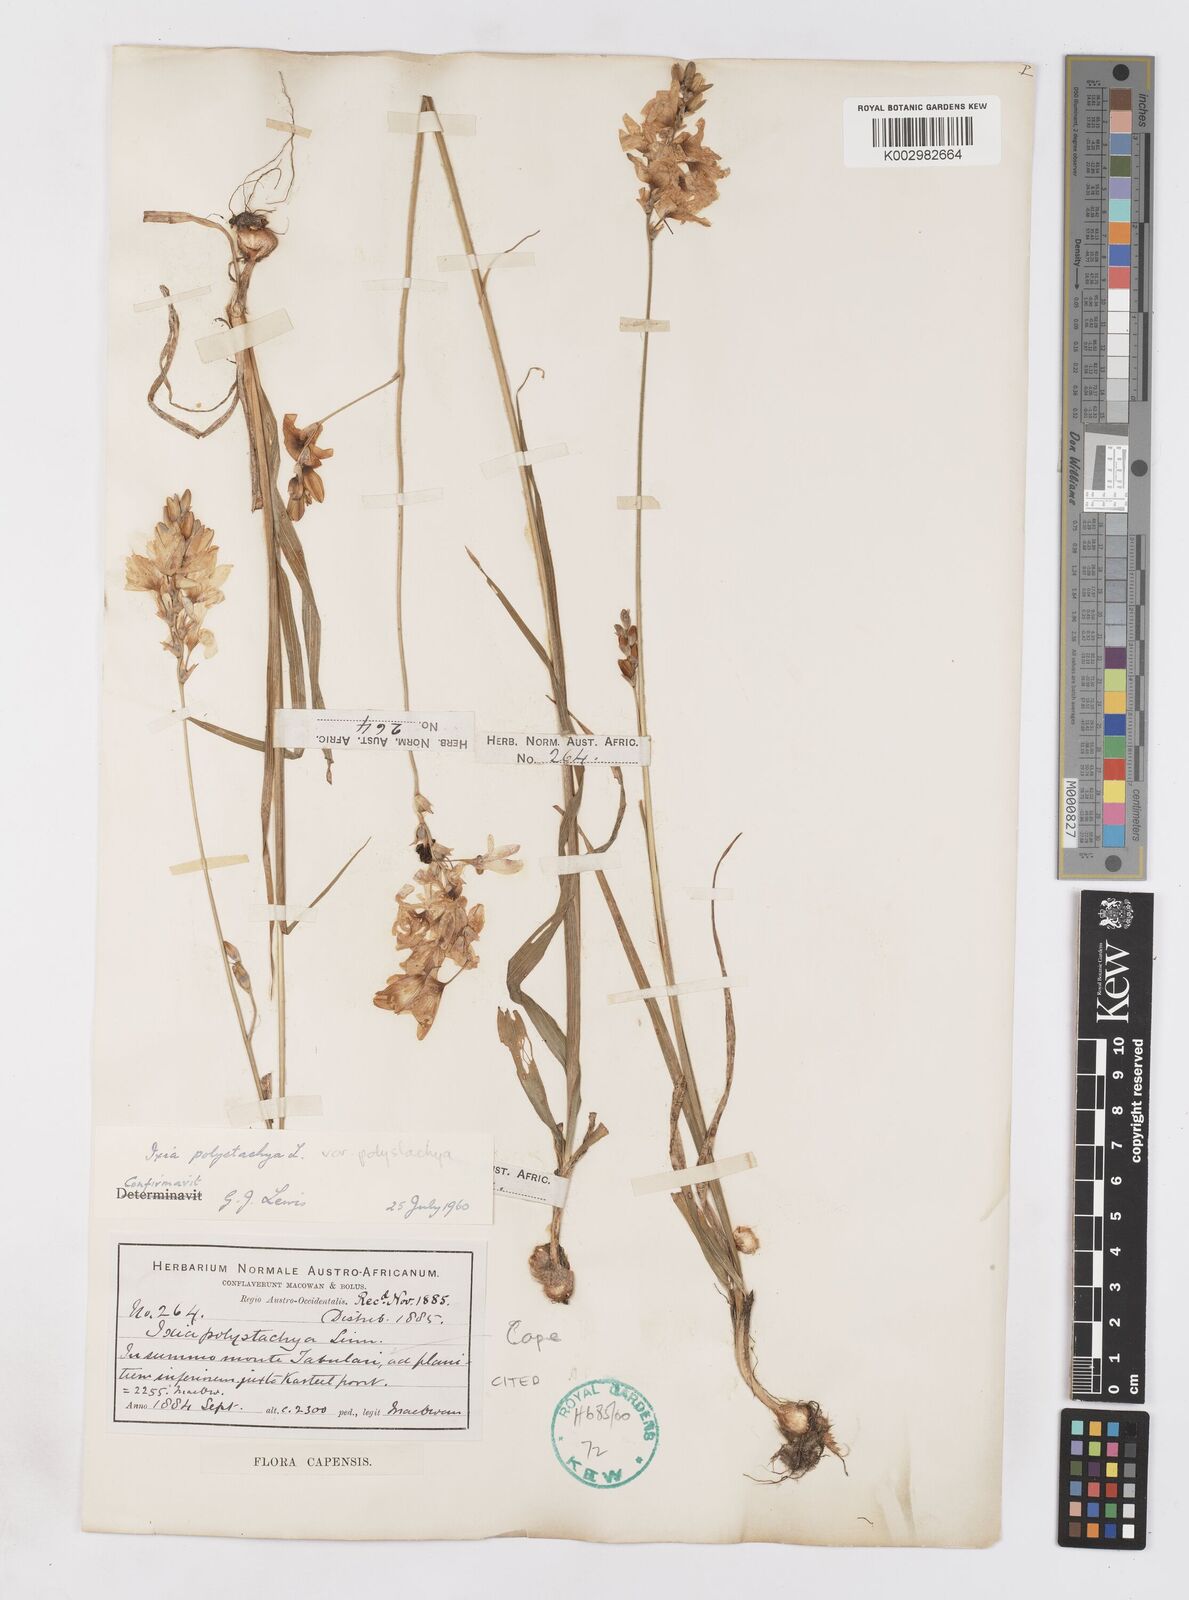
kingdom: Plantae
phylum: Tracheophyta
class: Liliopsida
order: Asparagales
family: Iridaceae
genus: Ixia
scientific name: Ixia polystachya
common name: White-and-yellow-flower cornlily
